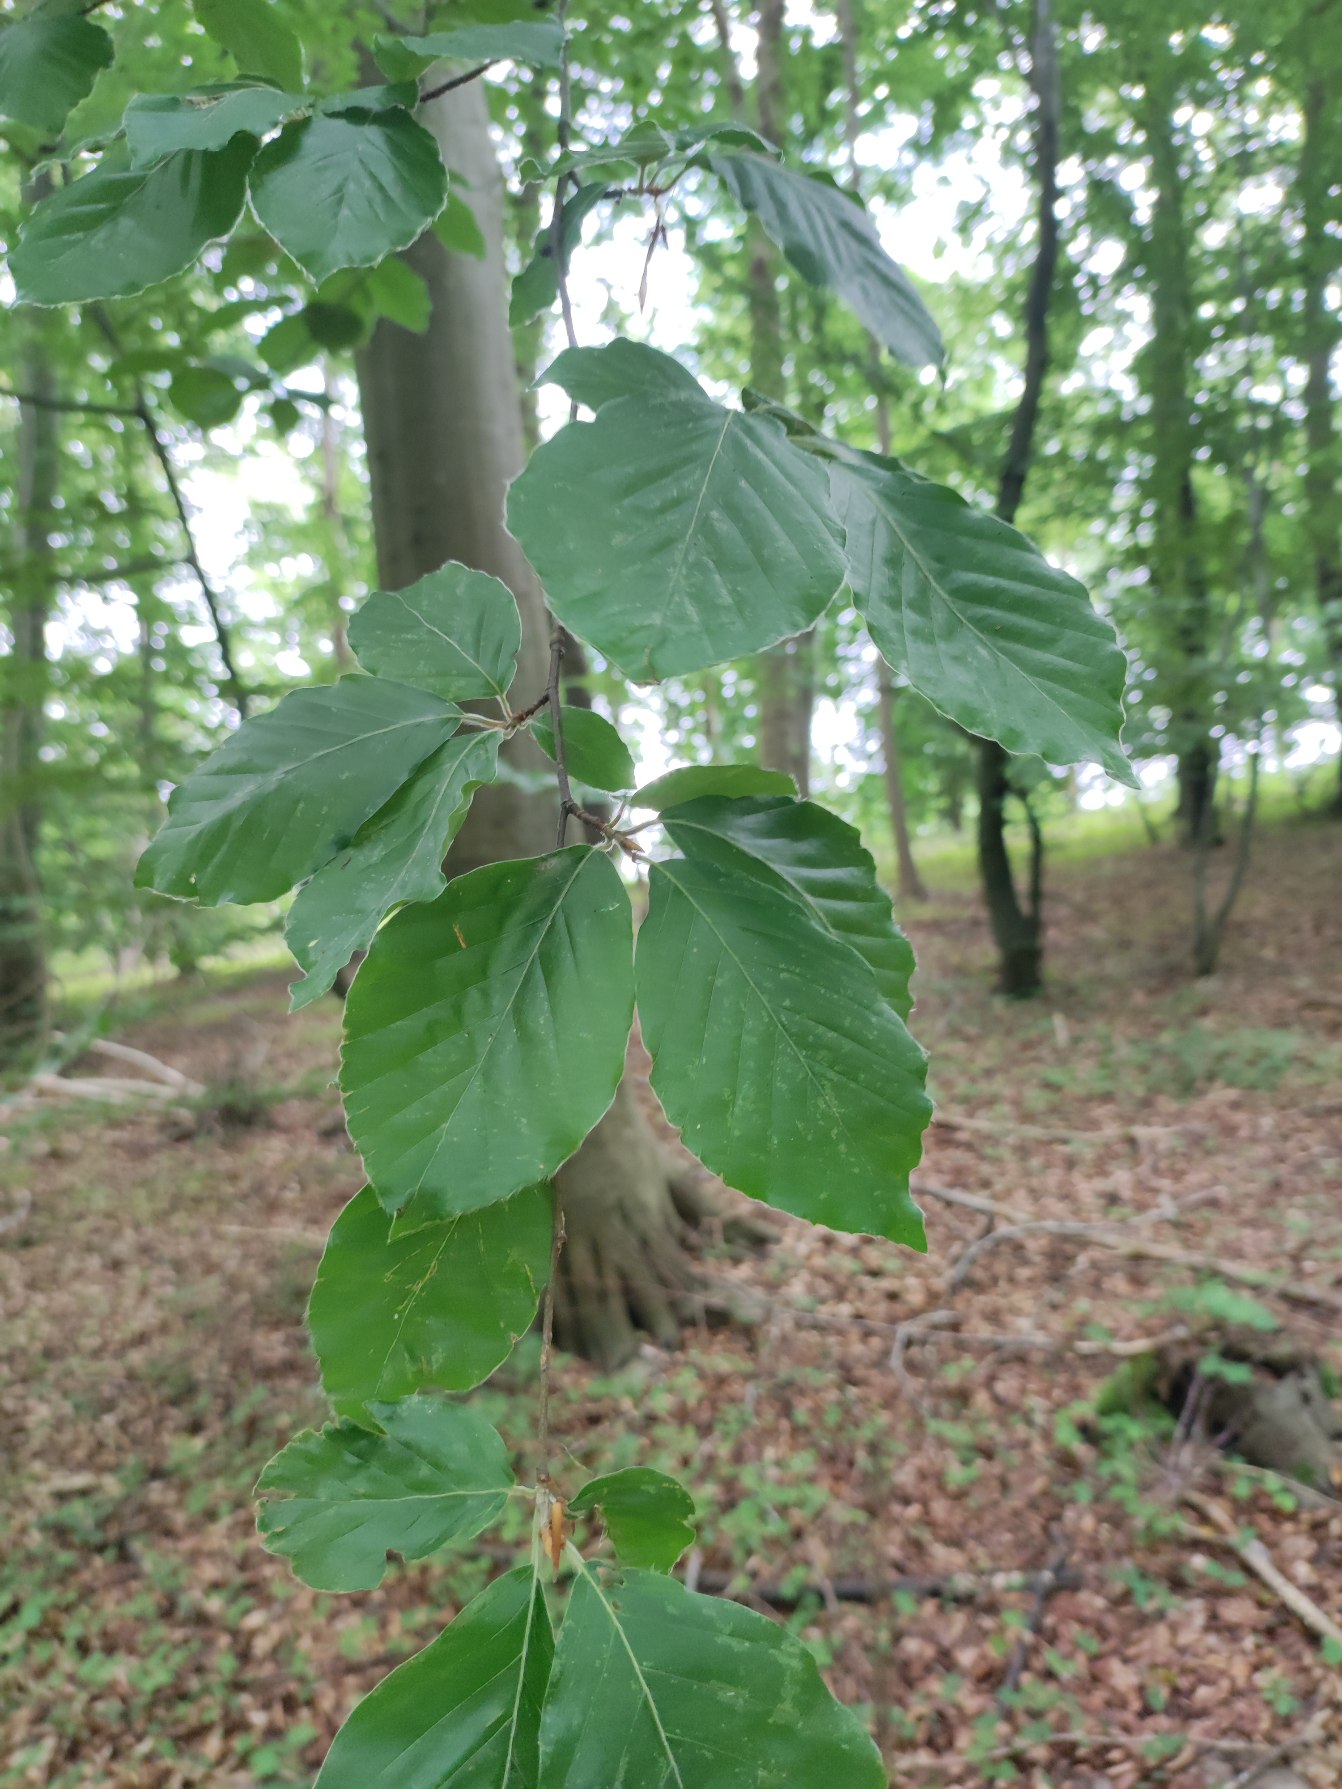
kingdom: Plantae
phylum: Tracheophyta
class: Magnoliopsida
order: Fagales
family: Fagaceae
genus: Fagus
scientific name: Fagus sylvatica
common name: Bøg
